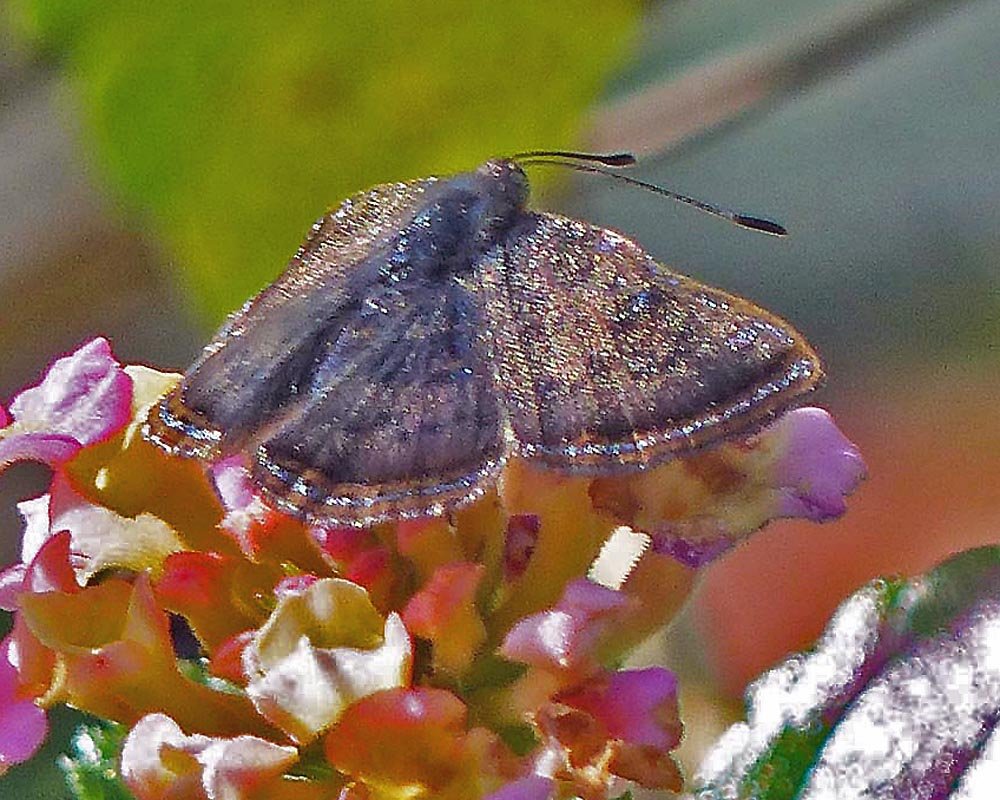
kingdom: Animalia
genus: Caria
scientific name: Caria ino
